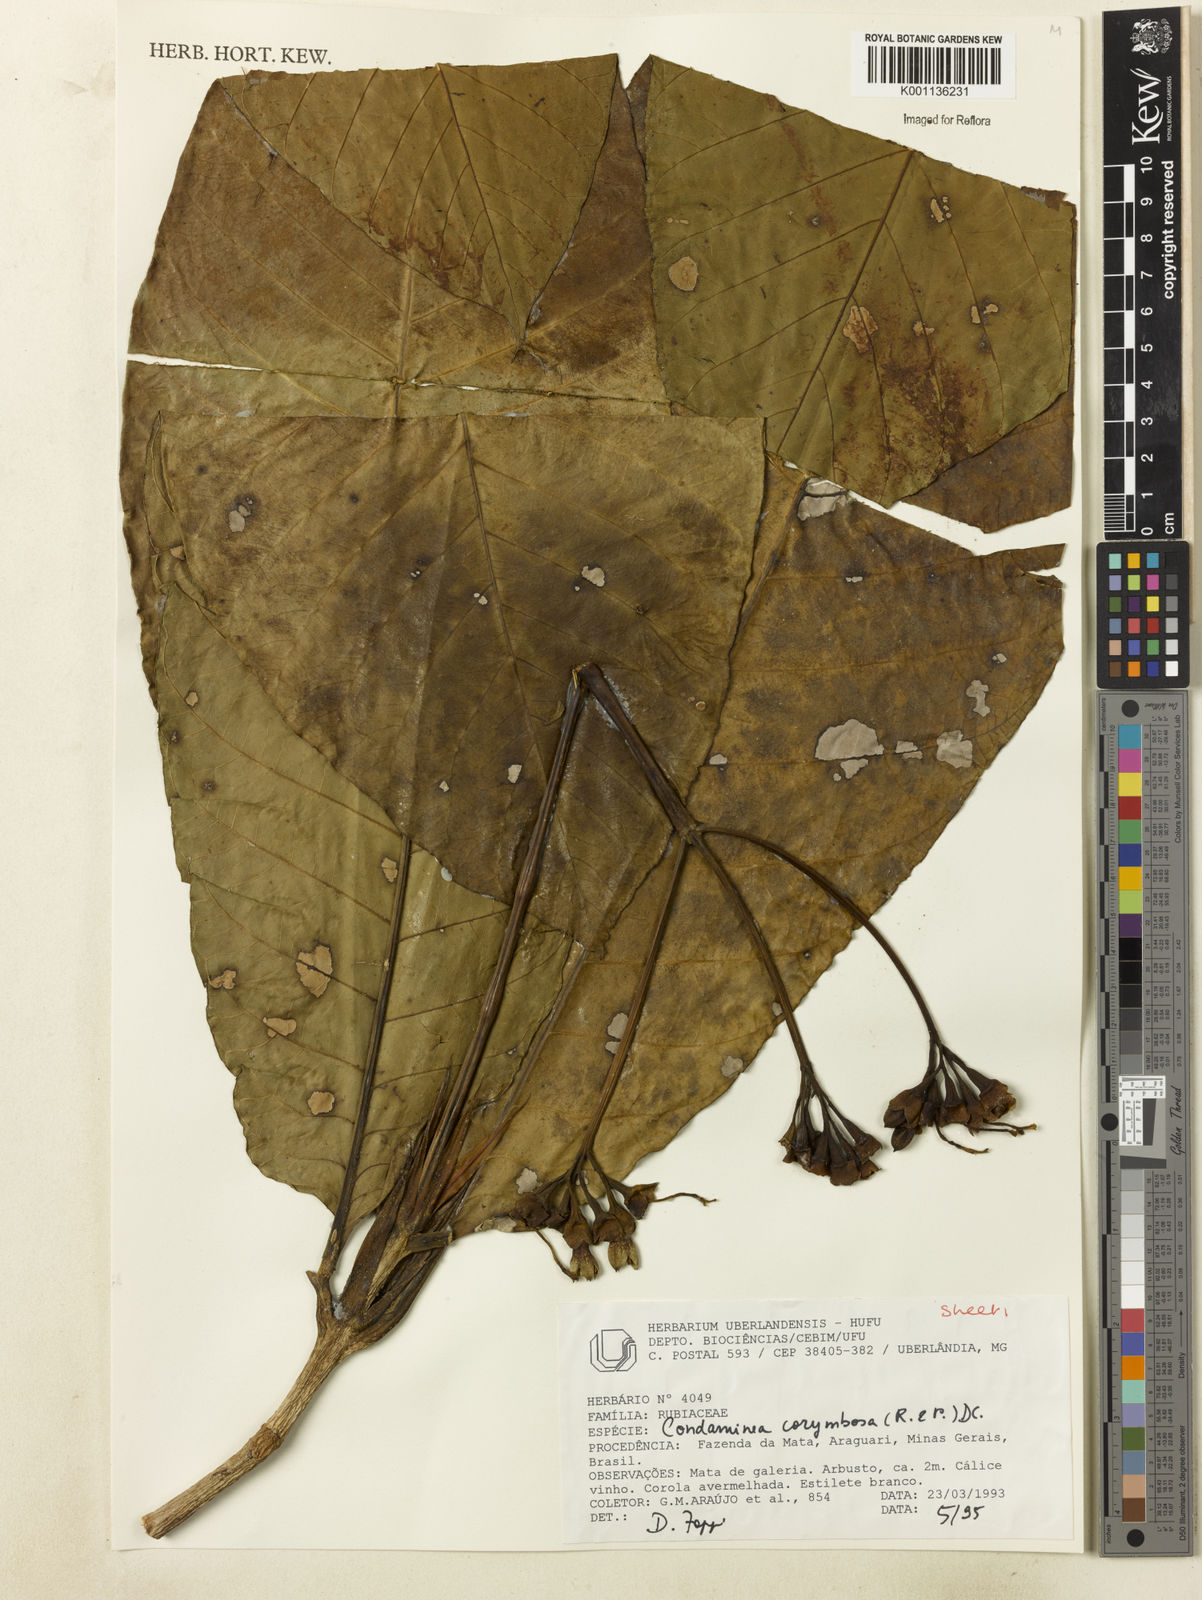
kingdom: Plantae
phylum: Tracheophyta
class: Magnoliopsida
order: Gentianales
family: Rubiaceae
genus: Condaminea
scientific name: Condaminea corymbosa
